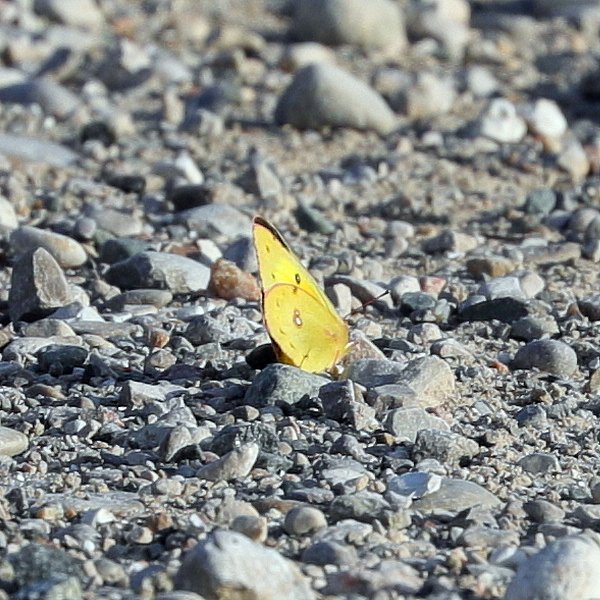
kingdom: Animalia
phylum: Arthropoda
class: Insecta
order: Lepidoptera
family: Pieridae
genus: Colias
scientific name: Colias eurytheme
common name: Orange Sulphur
